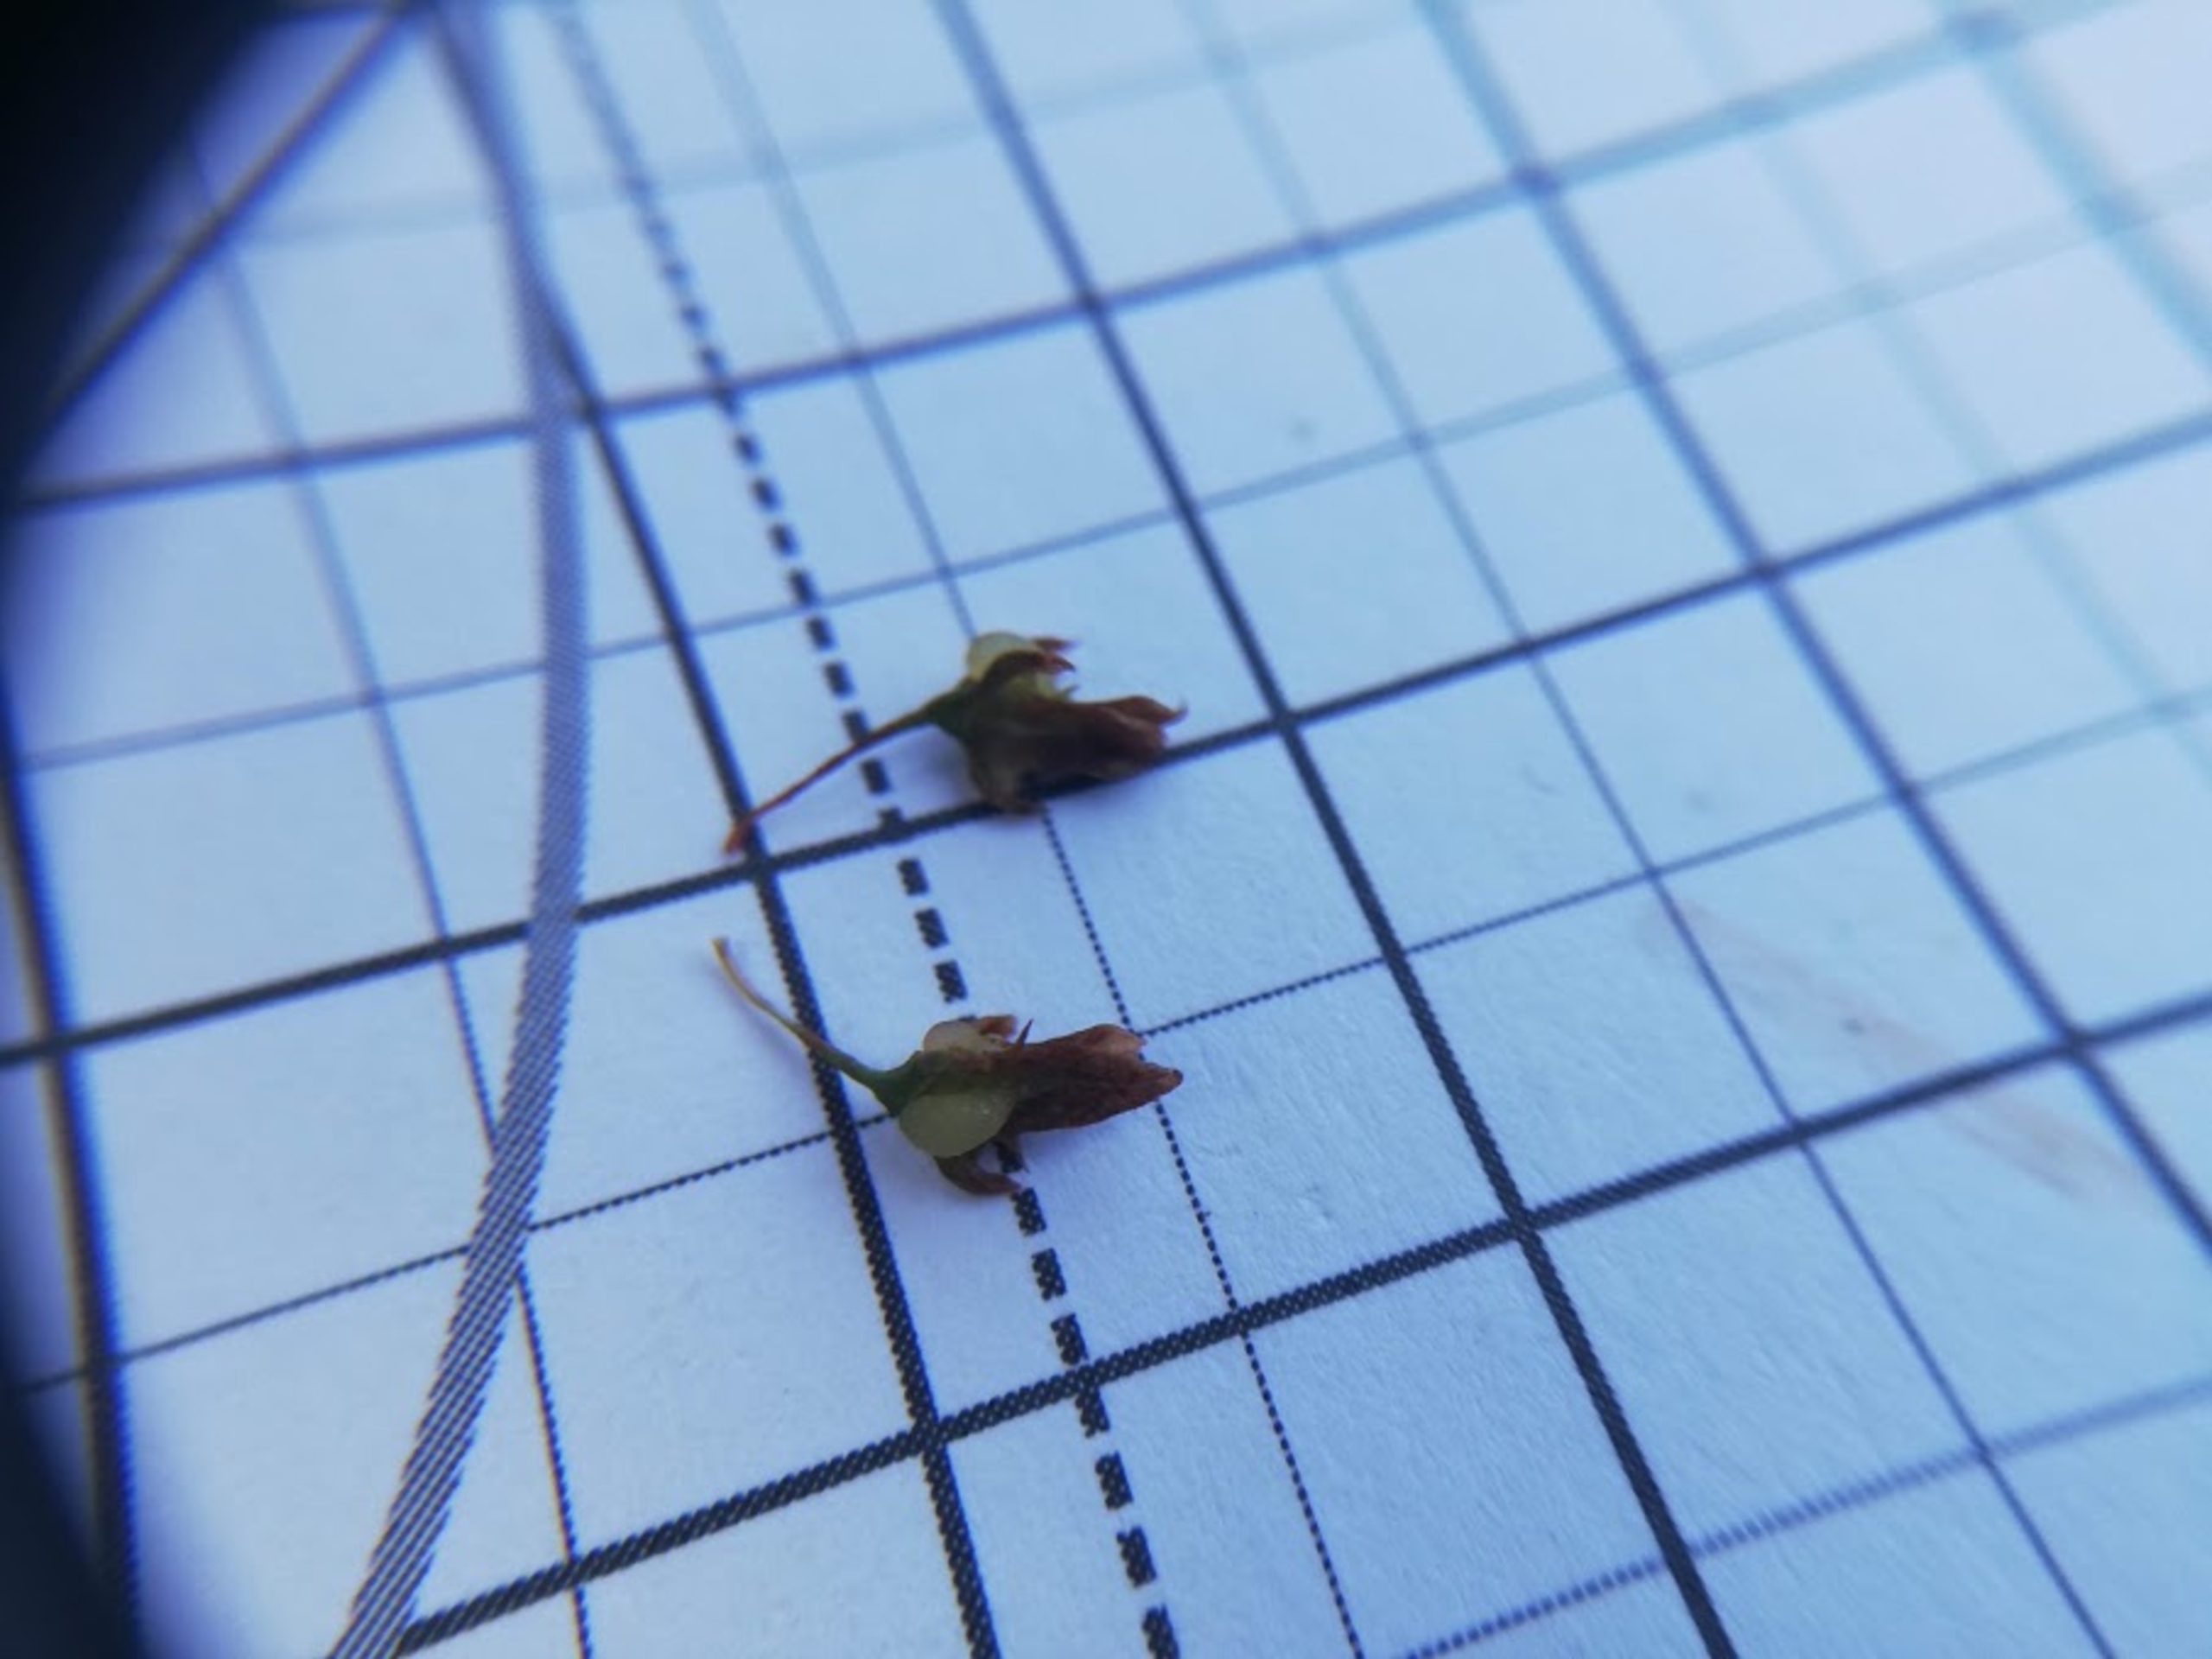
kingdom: Plantae
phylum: Tracheophyta
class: Magnoliopsida
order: Caryophyllales
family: Polygonaceae
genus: Rumex
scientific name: Rumex obtusifolius
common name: Butbladet skræppe
